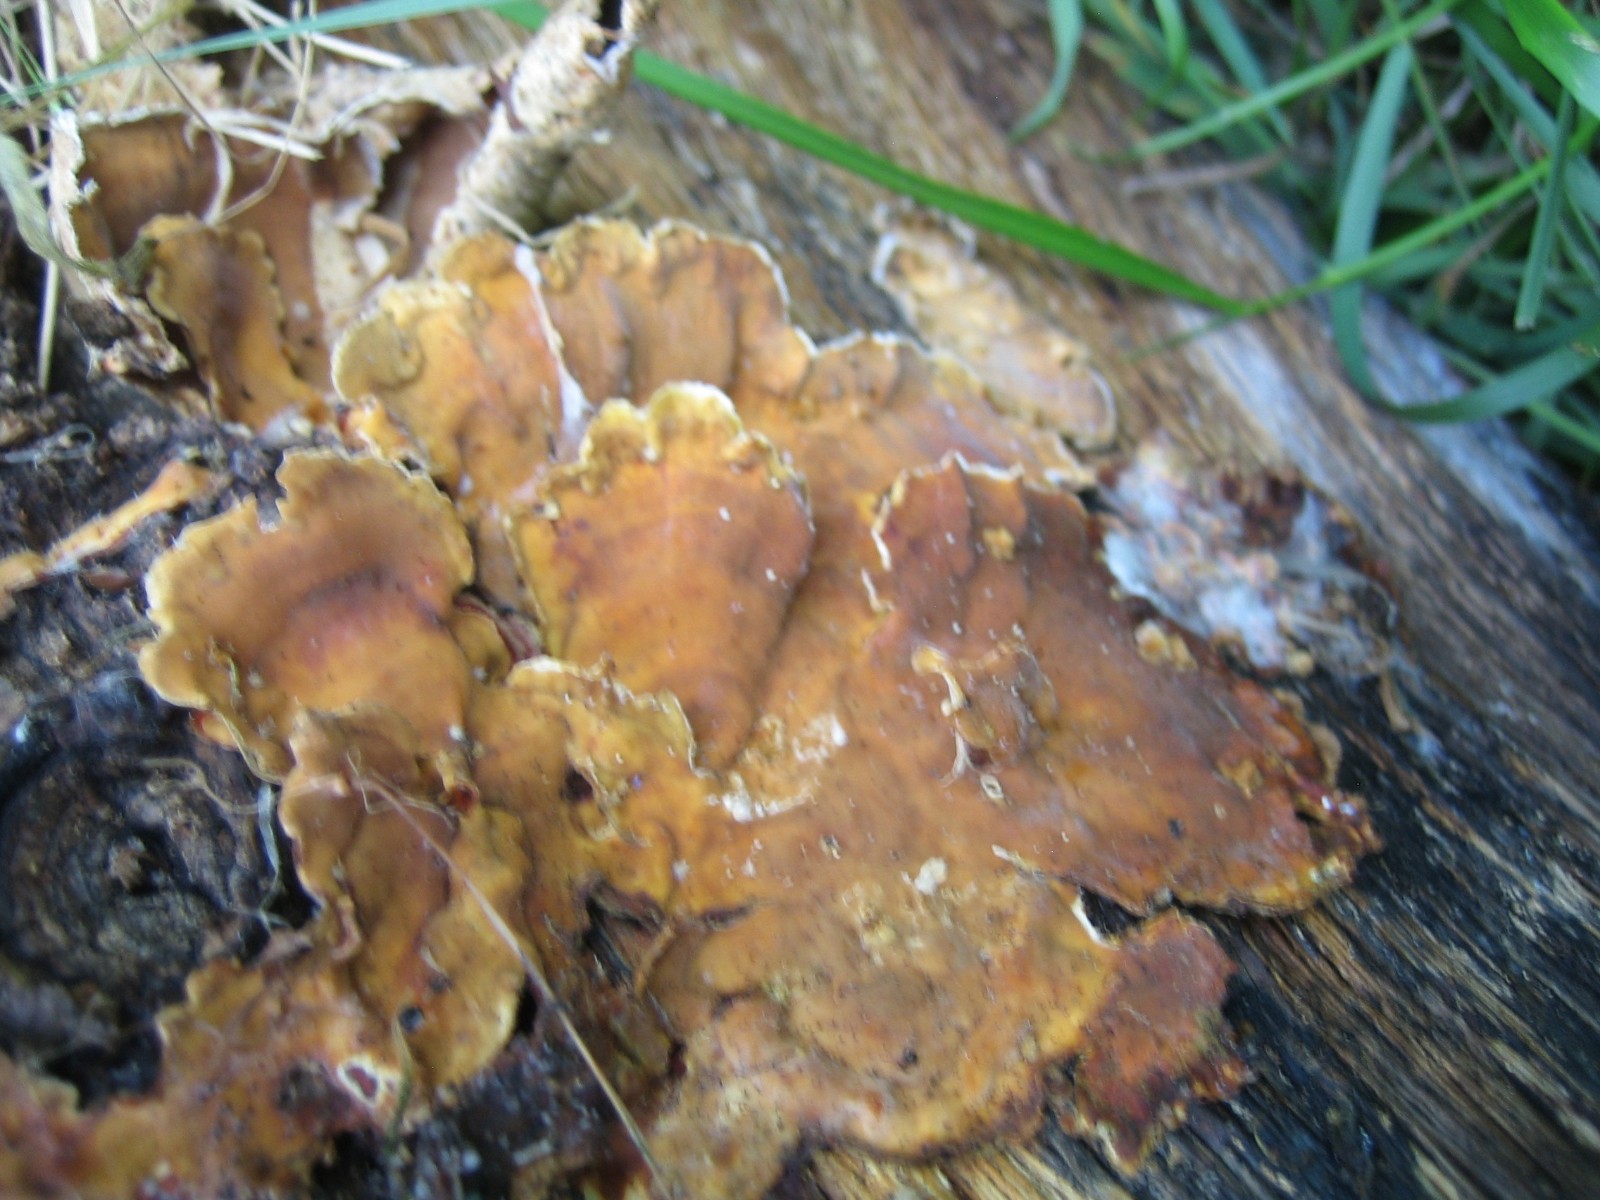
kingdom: Fungi
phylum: Basidiomycota
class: Agaricomycetes
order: Russulales
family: Stereaceae
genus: Stereum
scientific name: Stereum hirsutum
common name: håret lædersvamp
